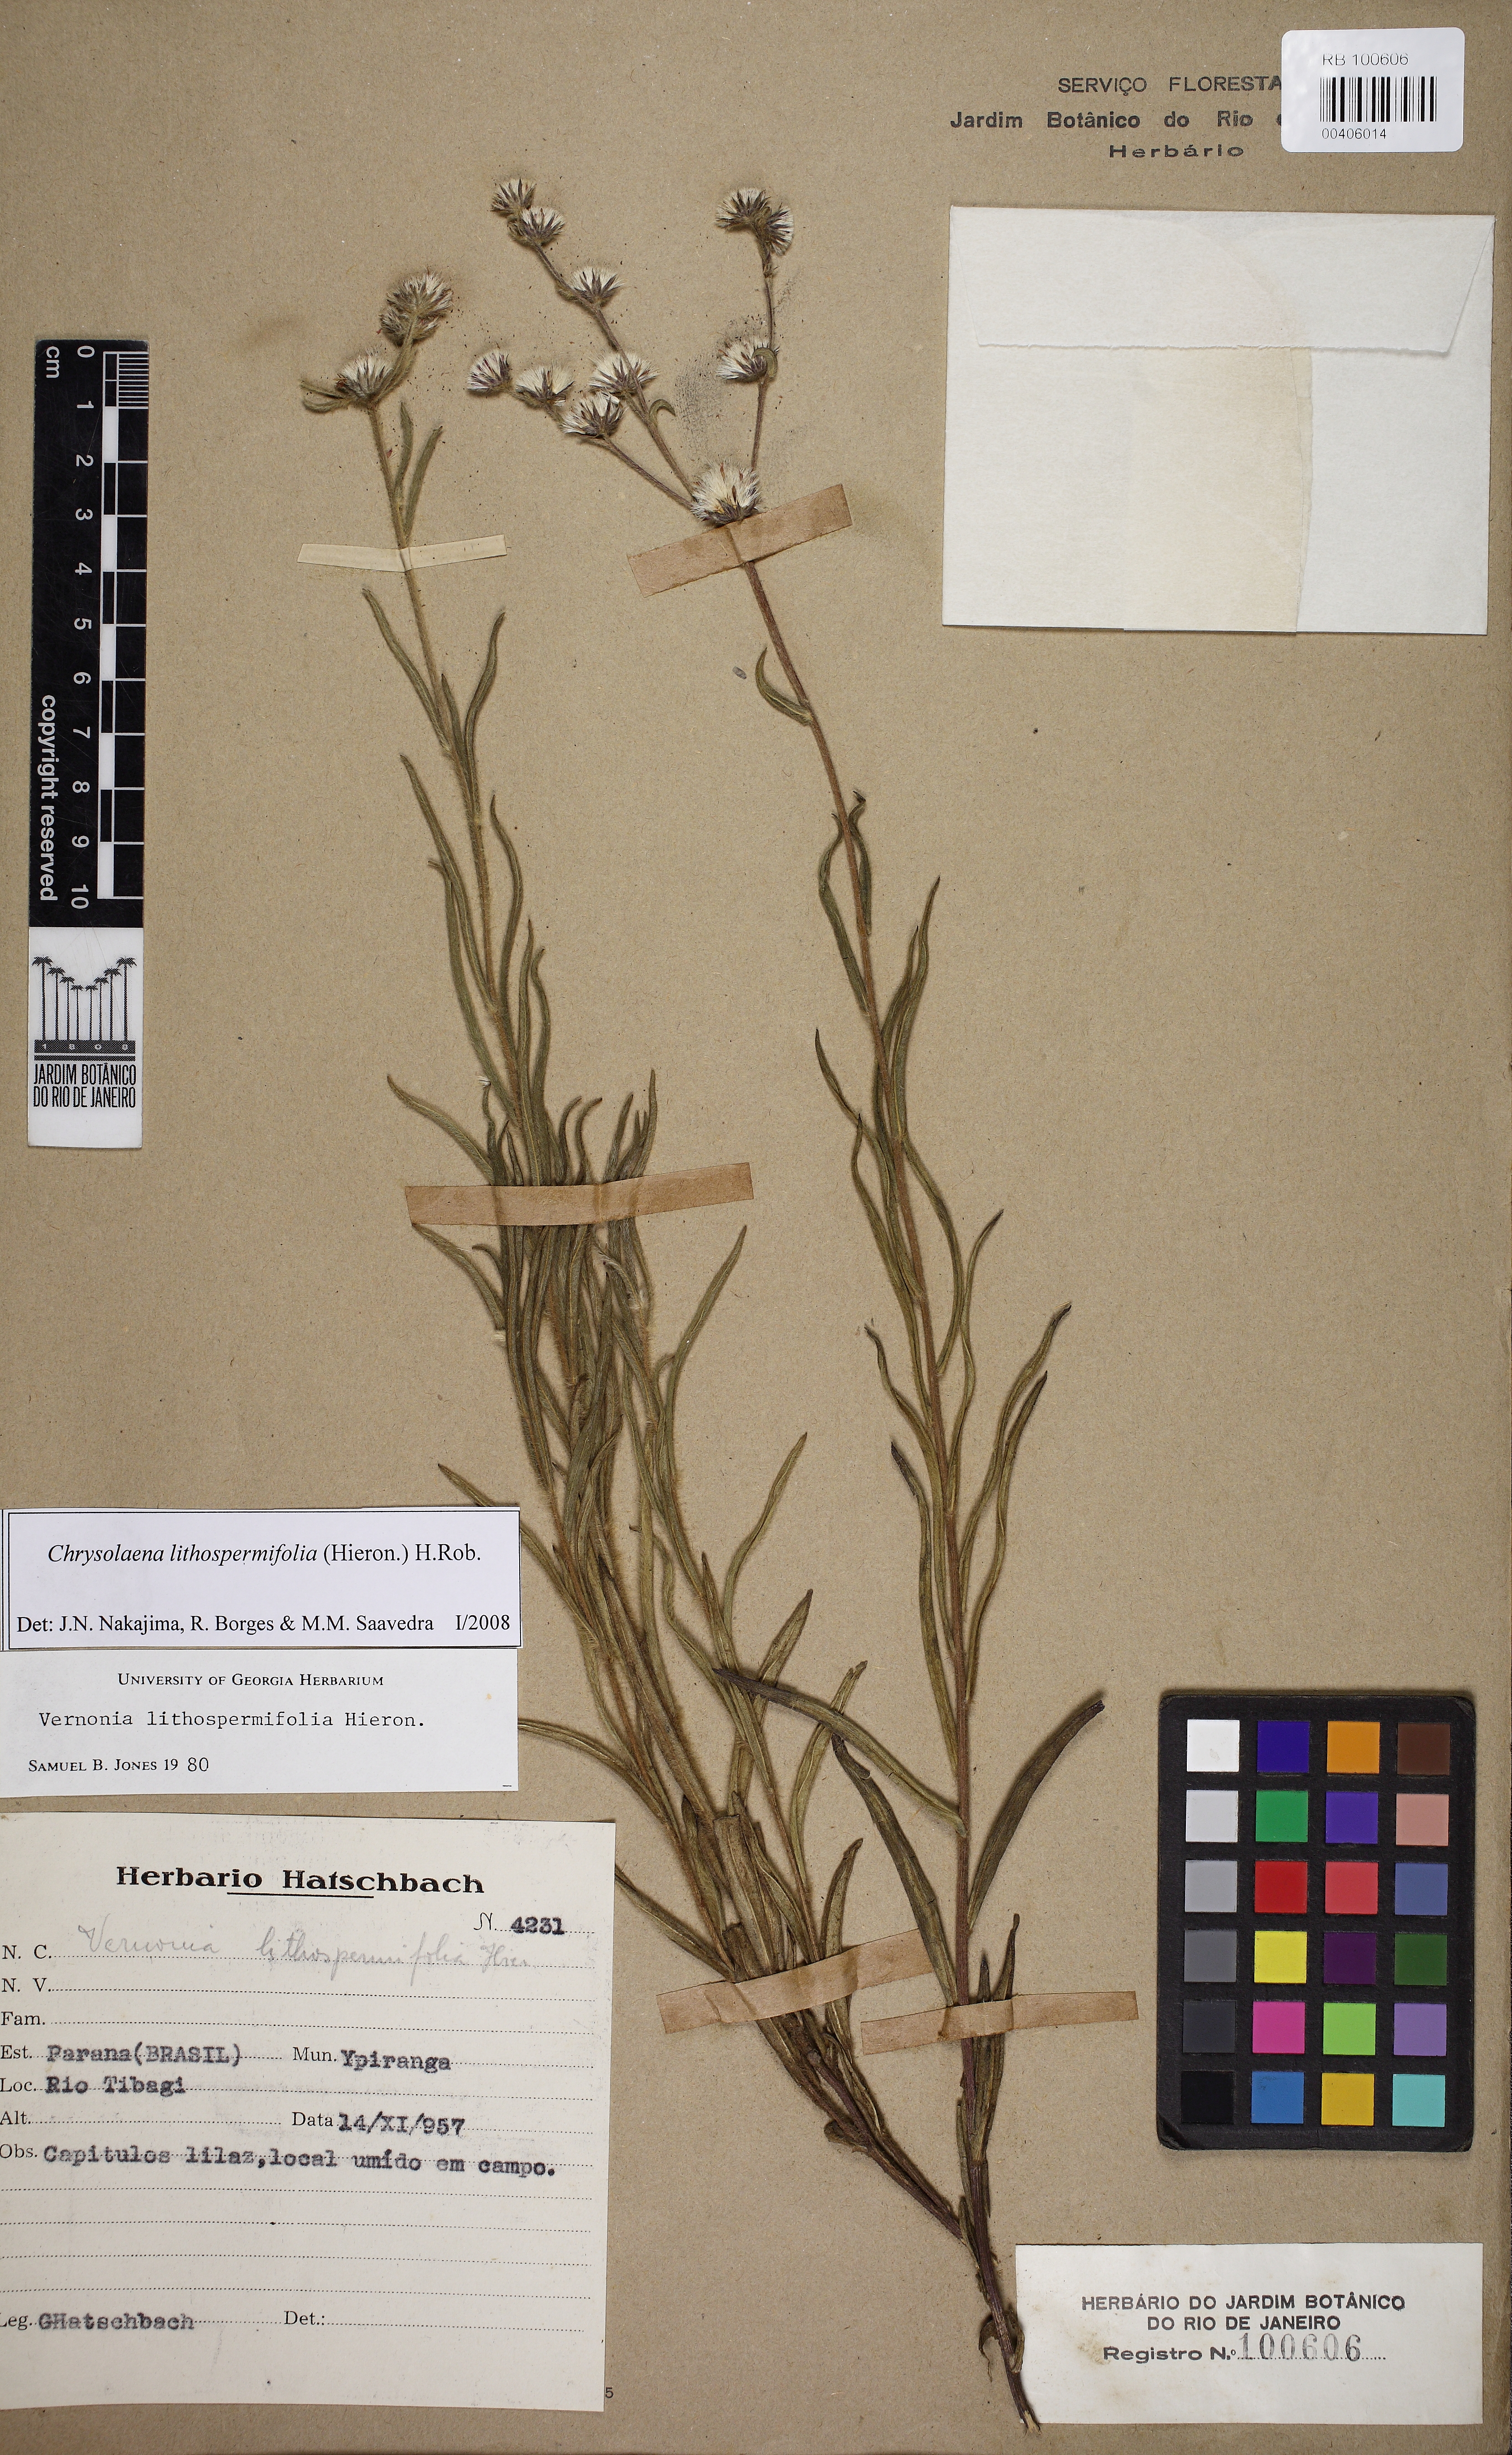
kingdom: Plantae
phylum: Tracheophyta
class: Magnoliopsida
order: Asterales
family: Asteraceae
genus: Chrysolaena
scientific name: Chrysolaena lithospermifolia
